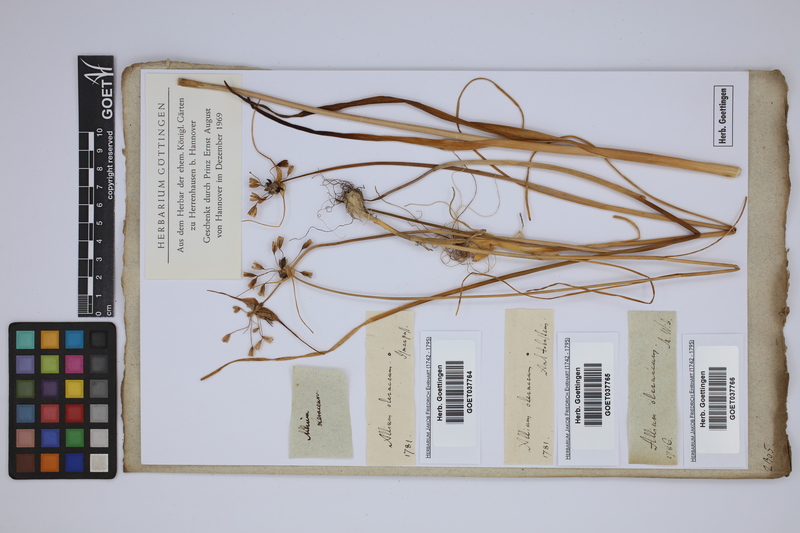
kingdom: Plantae
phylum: Tracheophyta
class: Liliopsida
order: Asparagales
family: Amaryllidaceae
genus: Allium
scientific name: Allium oleraceum
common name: Field garlic
